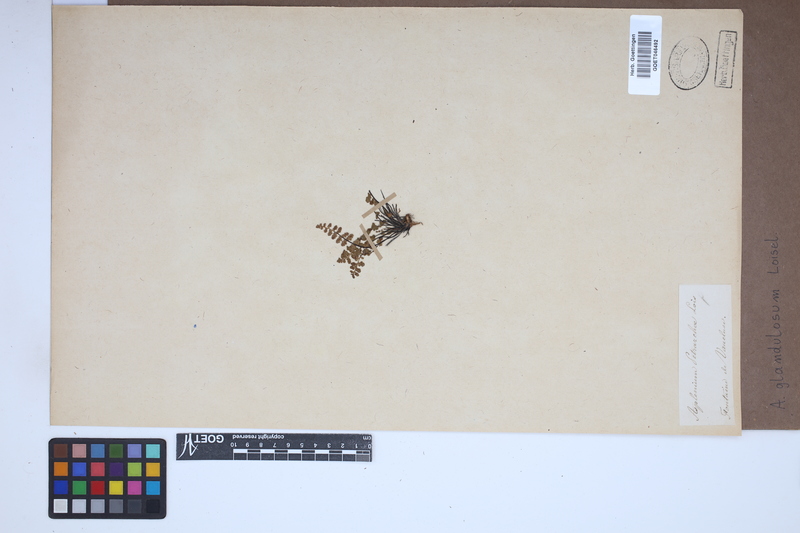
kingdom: Plantae
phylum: Tracheophyta
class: Polypodiopsida
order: Polypodiales
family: Aspleniaceae
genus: Asplenium
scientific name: Asplenium petrarchae
